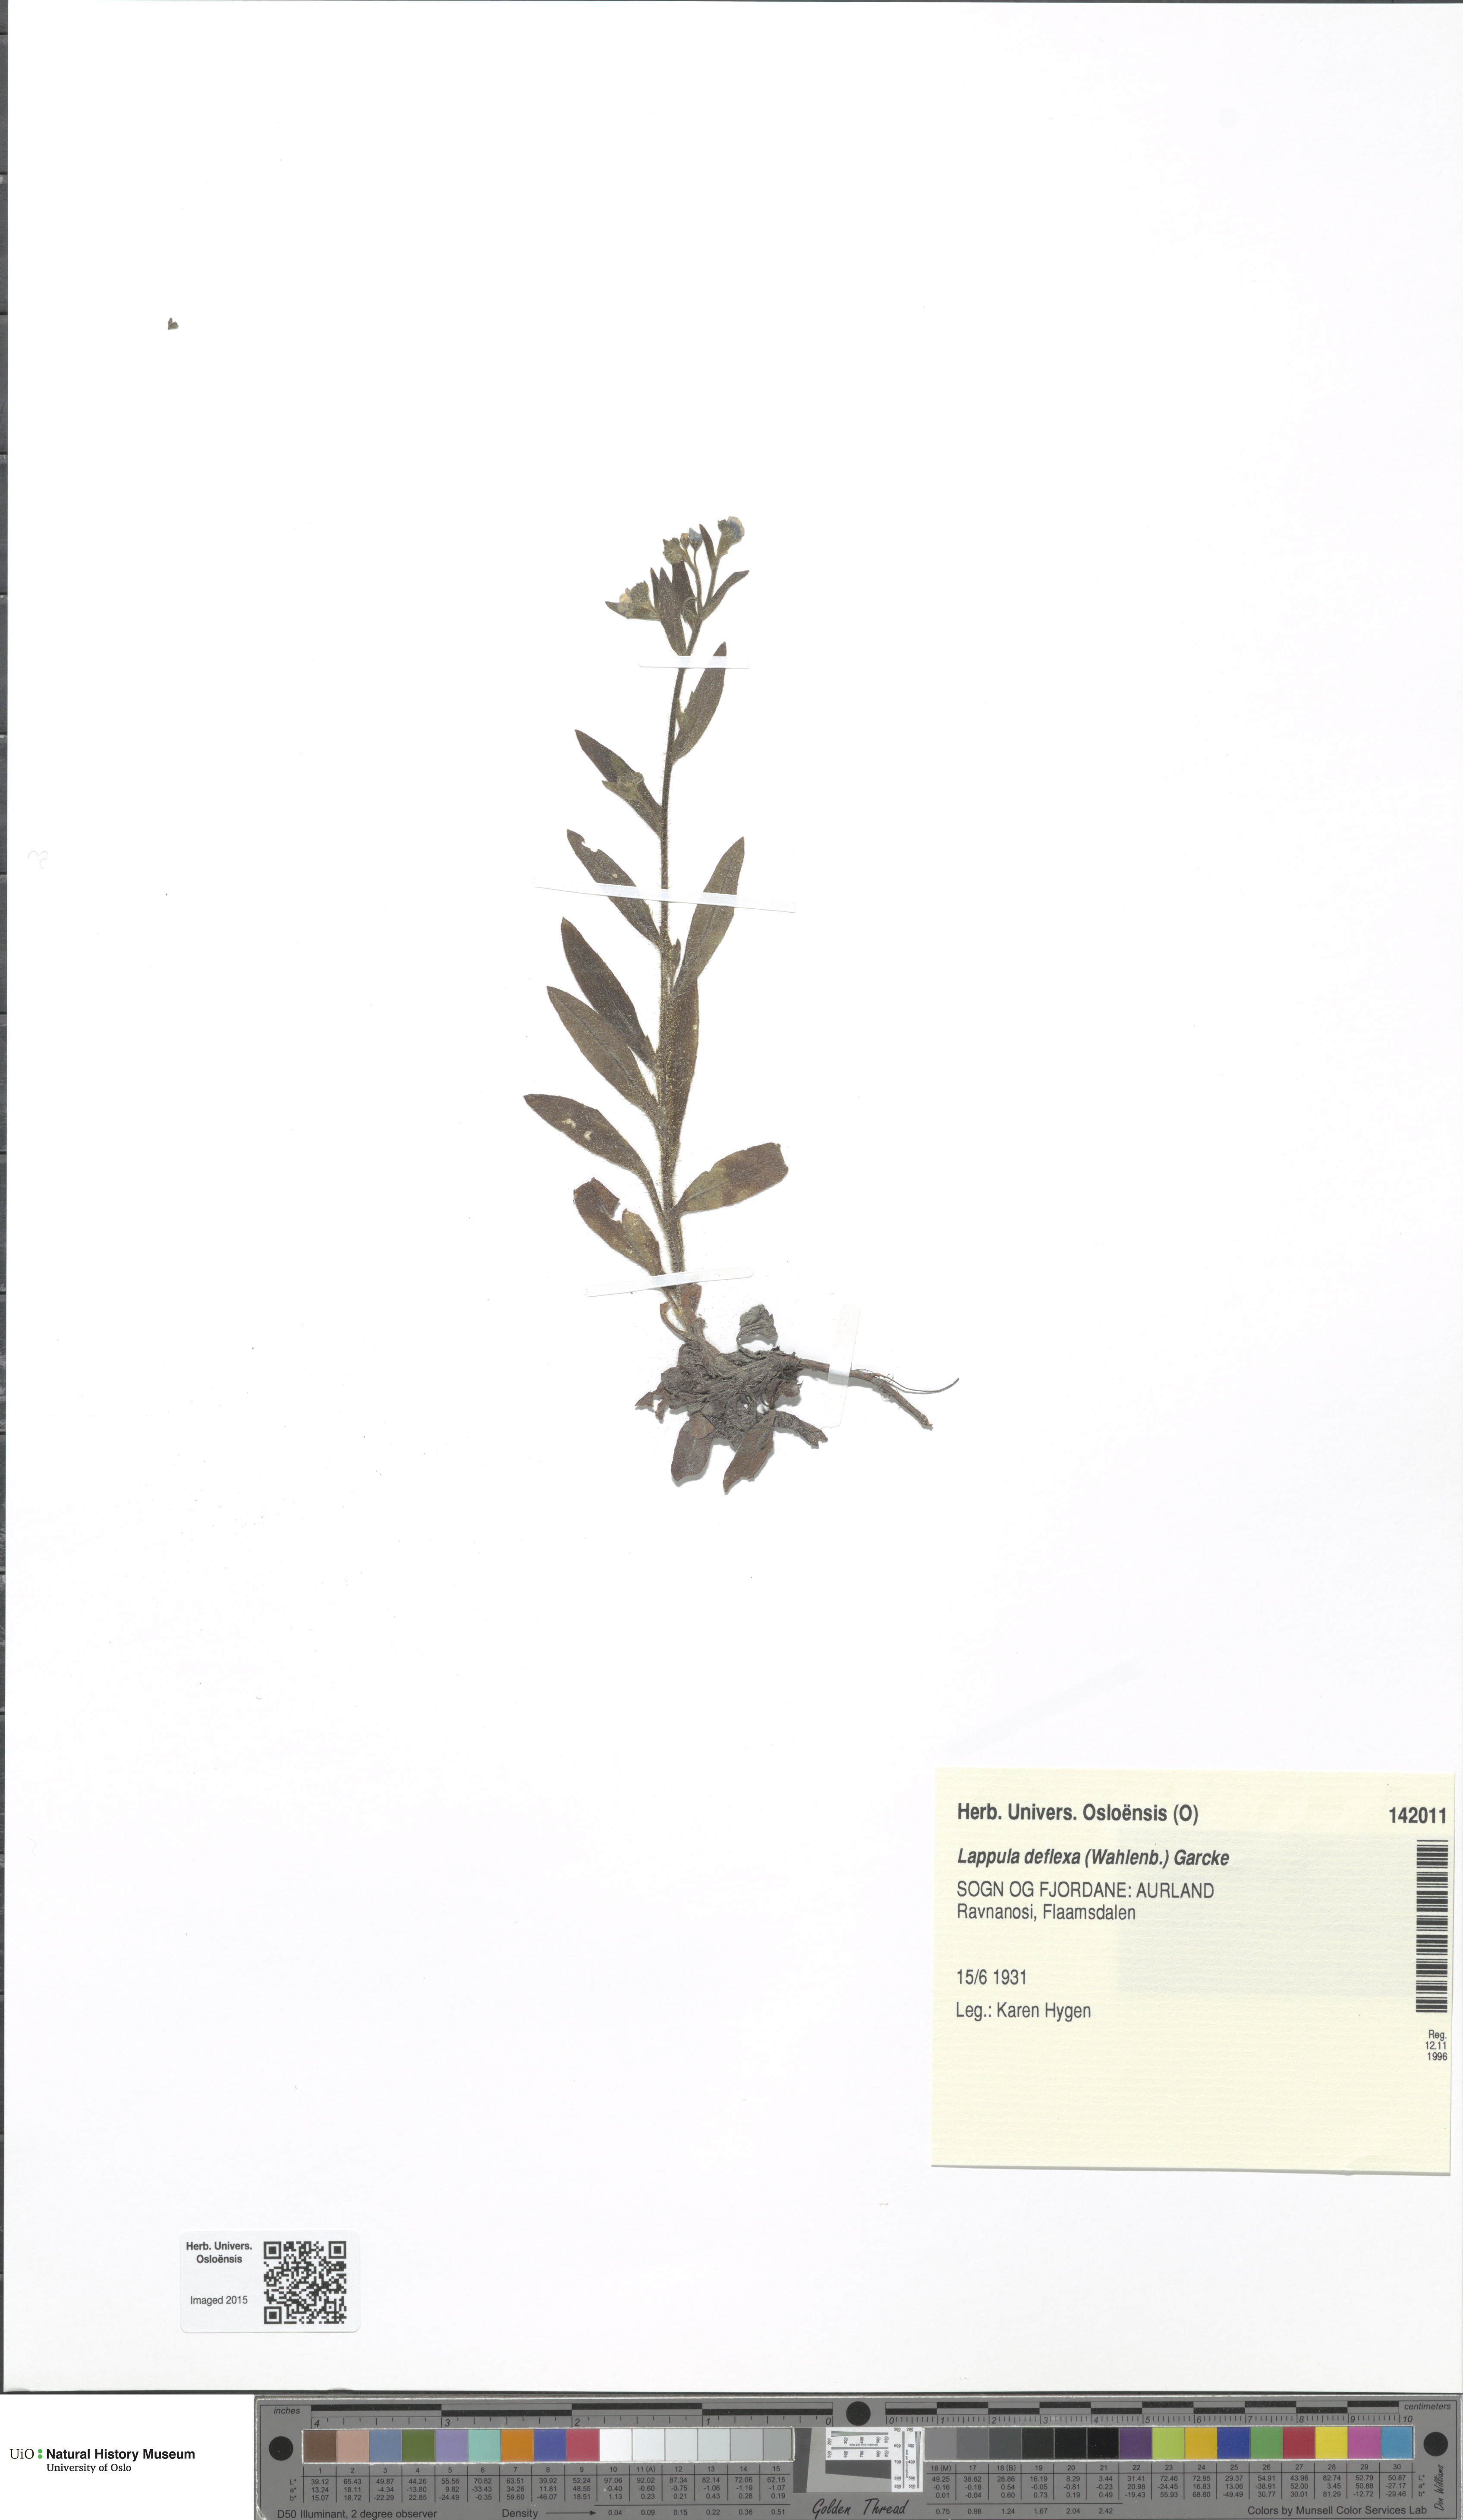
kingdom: Plantae
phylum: Tracheophyta
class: Magnoliopsida
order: Boraginales
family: Boraginaceae
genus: Hackelia
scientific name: Hackelia deflexa
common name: Nodding stickseed
